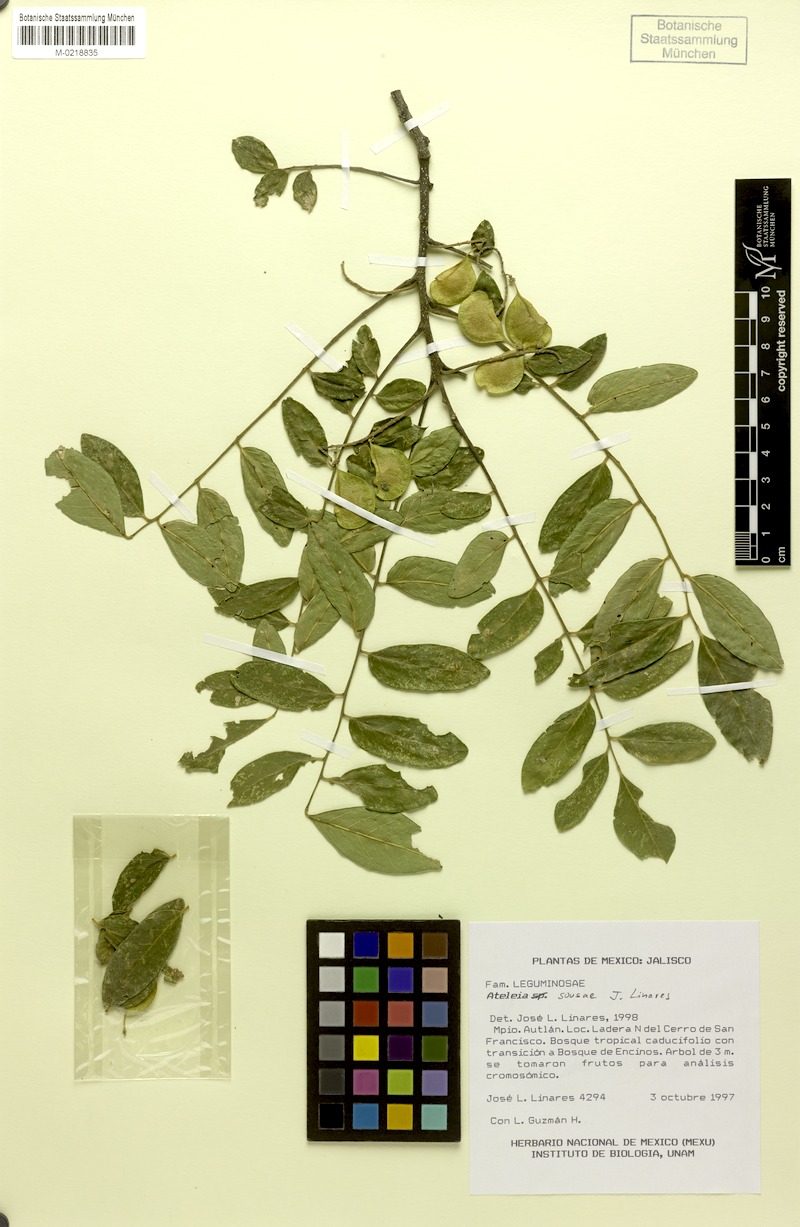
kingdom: Plantae
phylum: Tracheophyta
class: Magnoliopsida
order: Fabales
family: Fabaceae
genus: Ateleia
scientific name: Ateleia sousae
